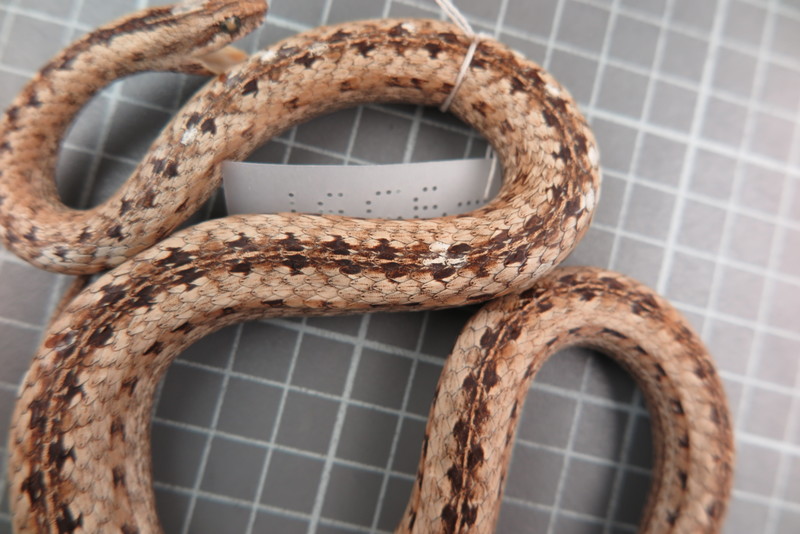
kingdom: Animalia
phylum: Chordata
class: Squamata
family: Psammophiidae
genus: Mimophis
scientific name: Mimophis
